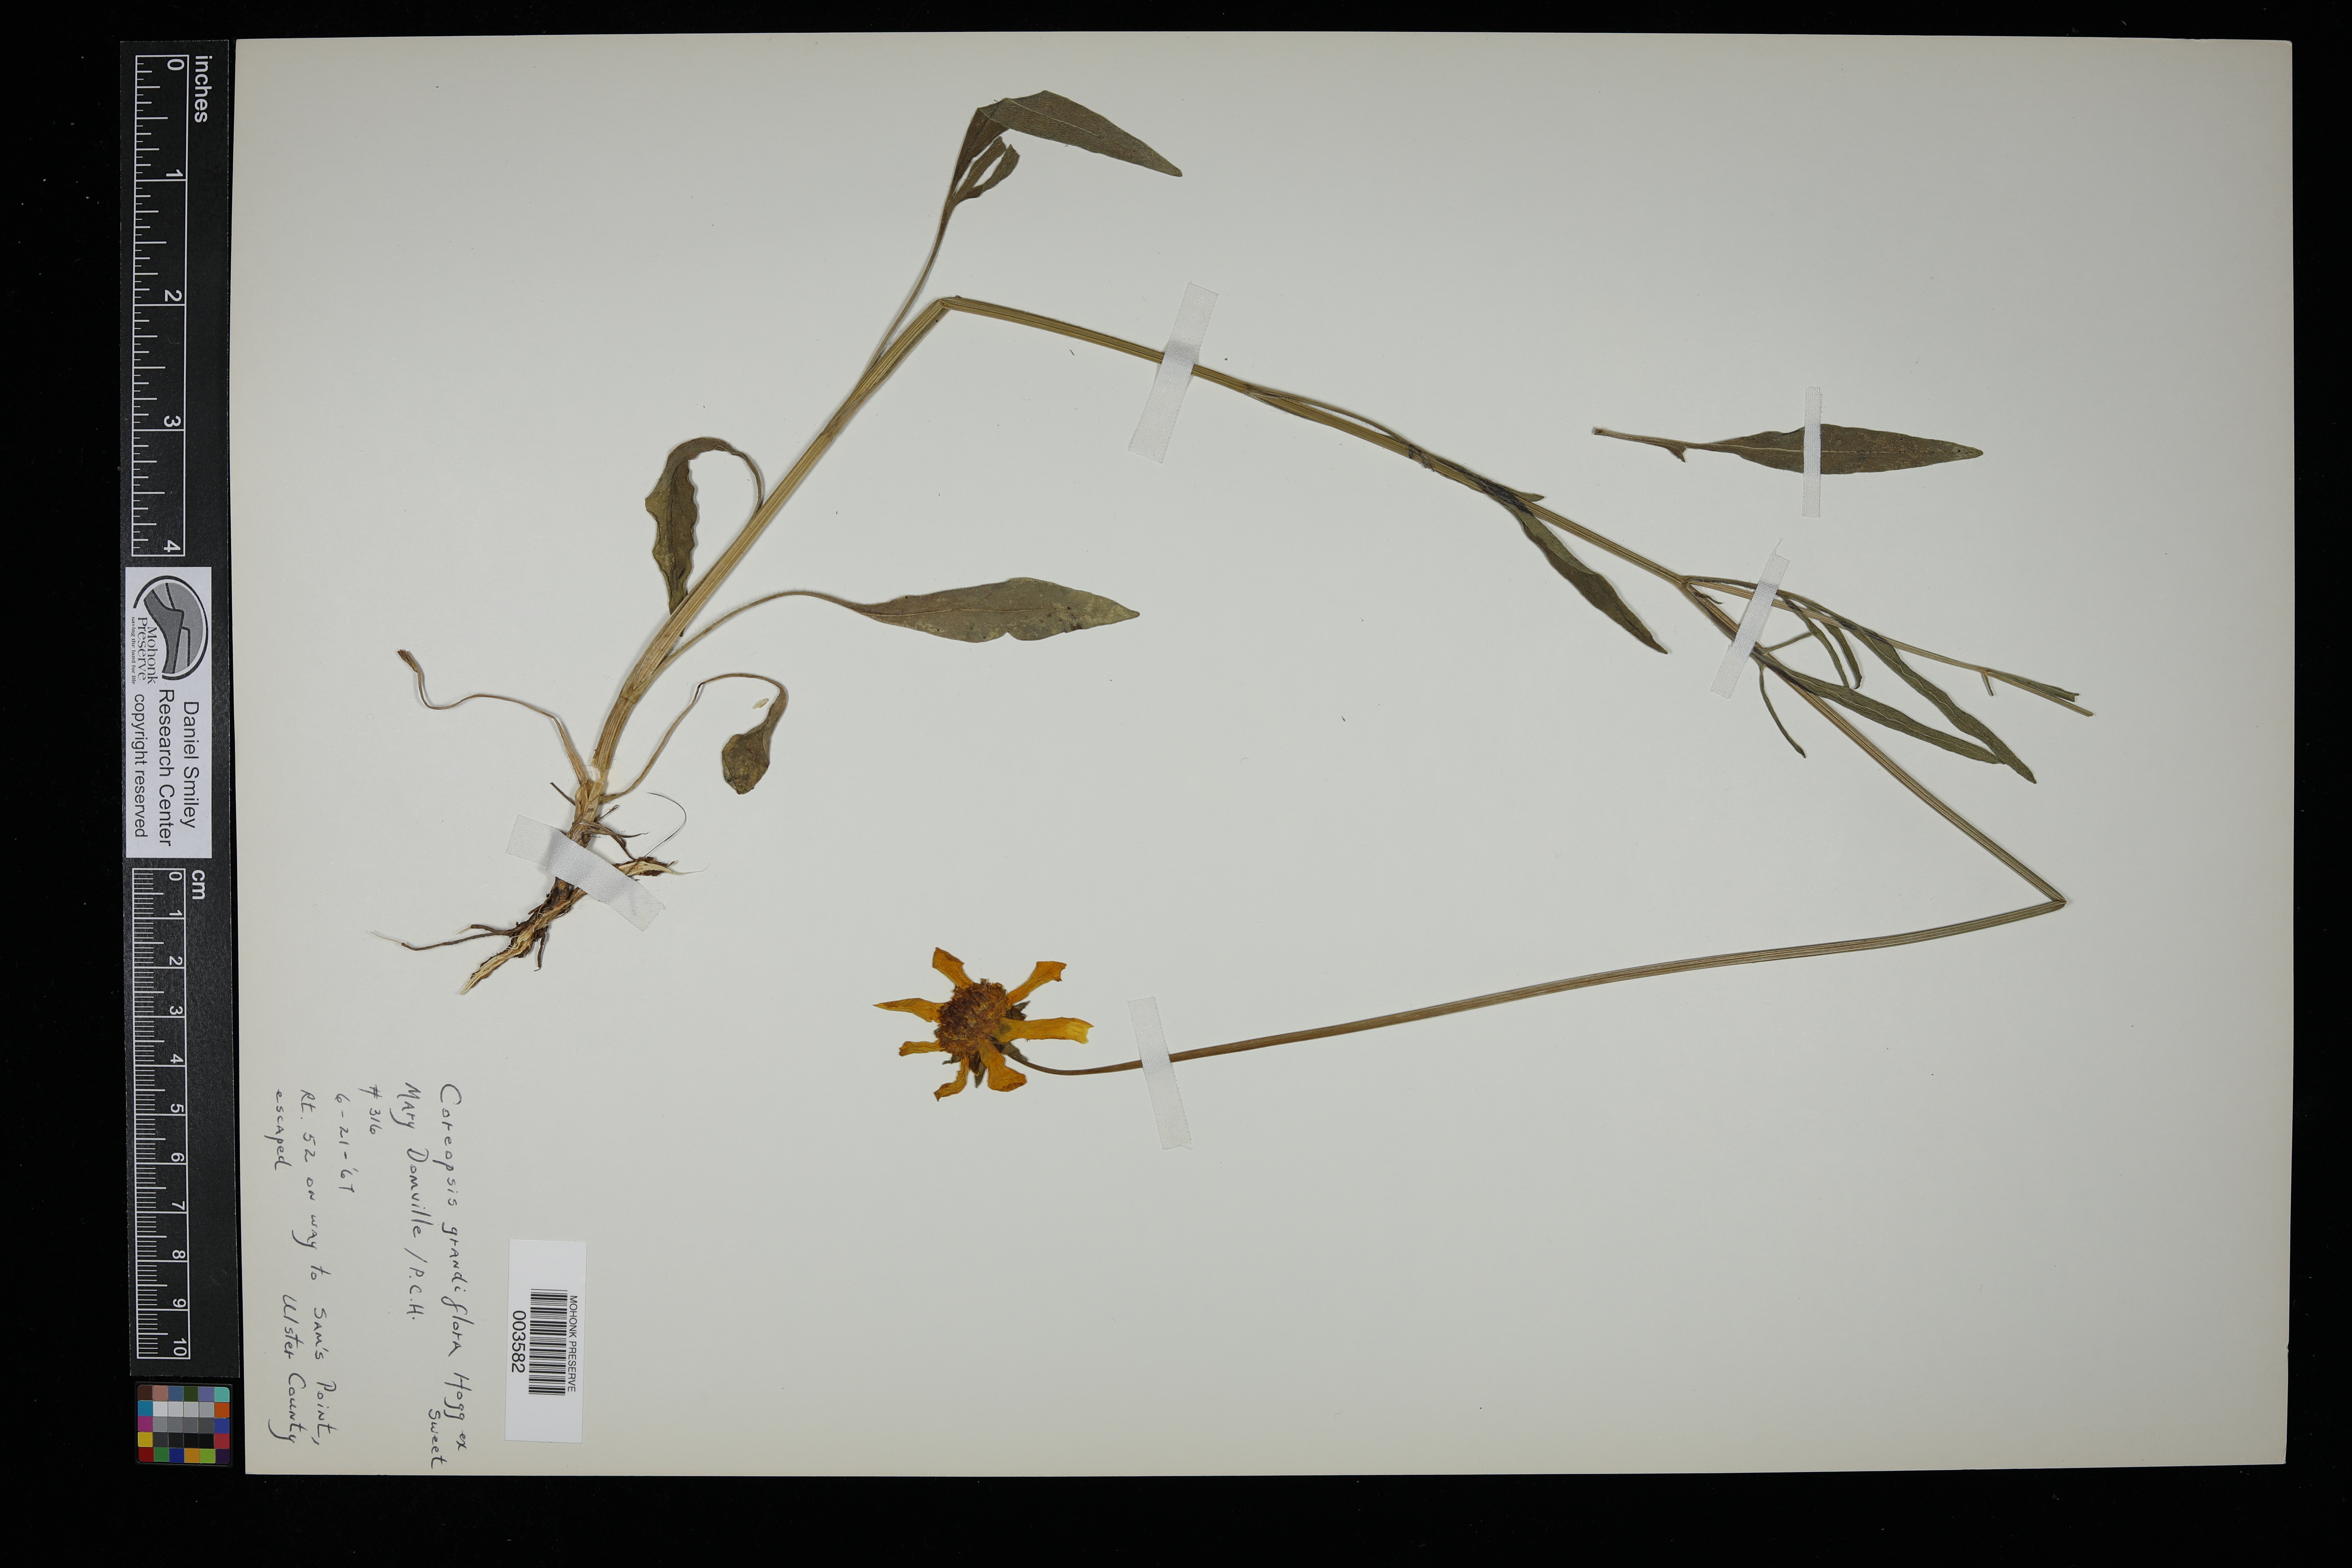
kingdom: Plantae
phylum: Tracheophyta
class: Magnoliopsida
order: Asterales
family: Asteraceae
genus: Coreopsis
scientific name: Coreopsis grandiflora
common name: Large-flowered tickseed
